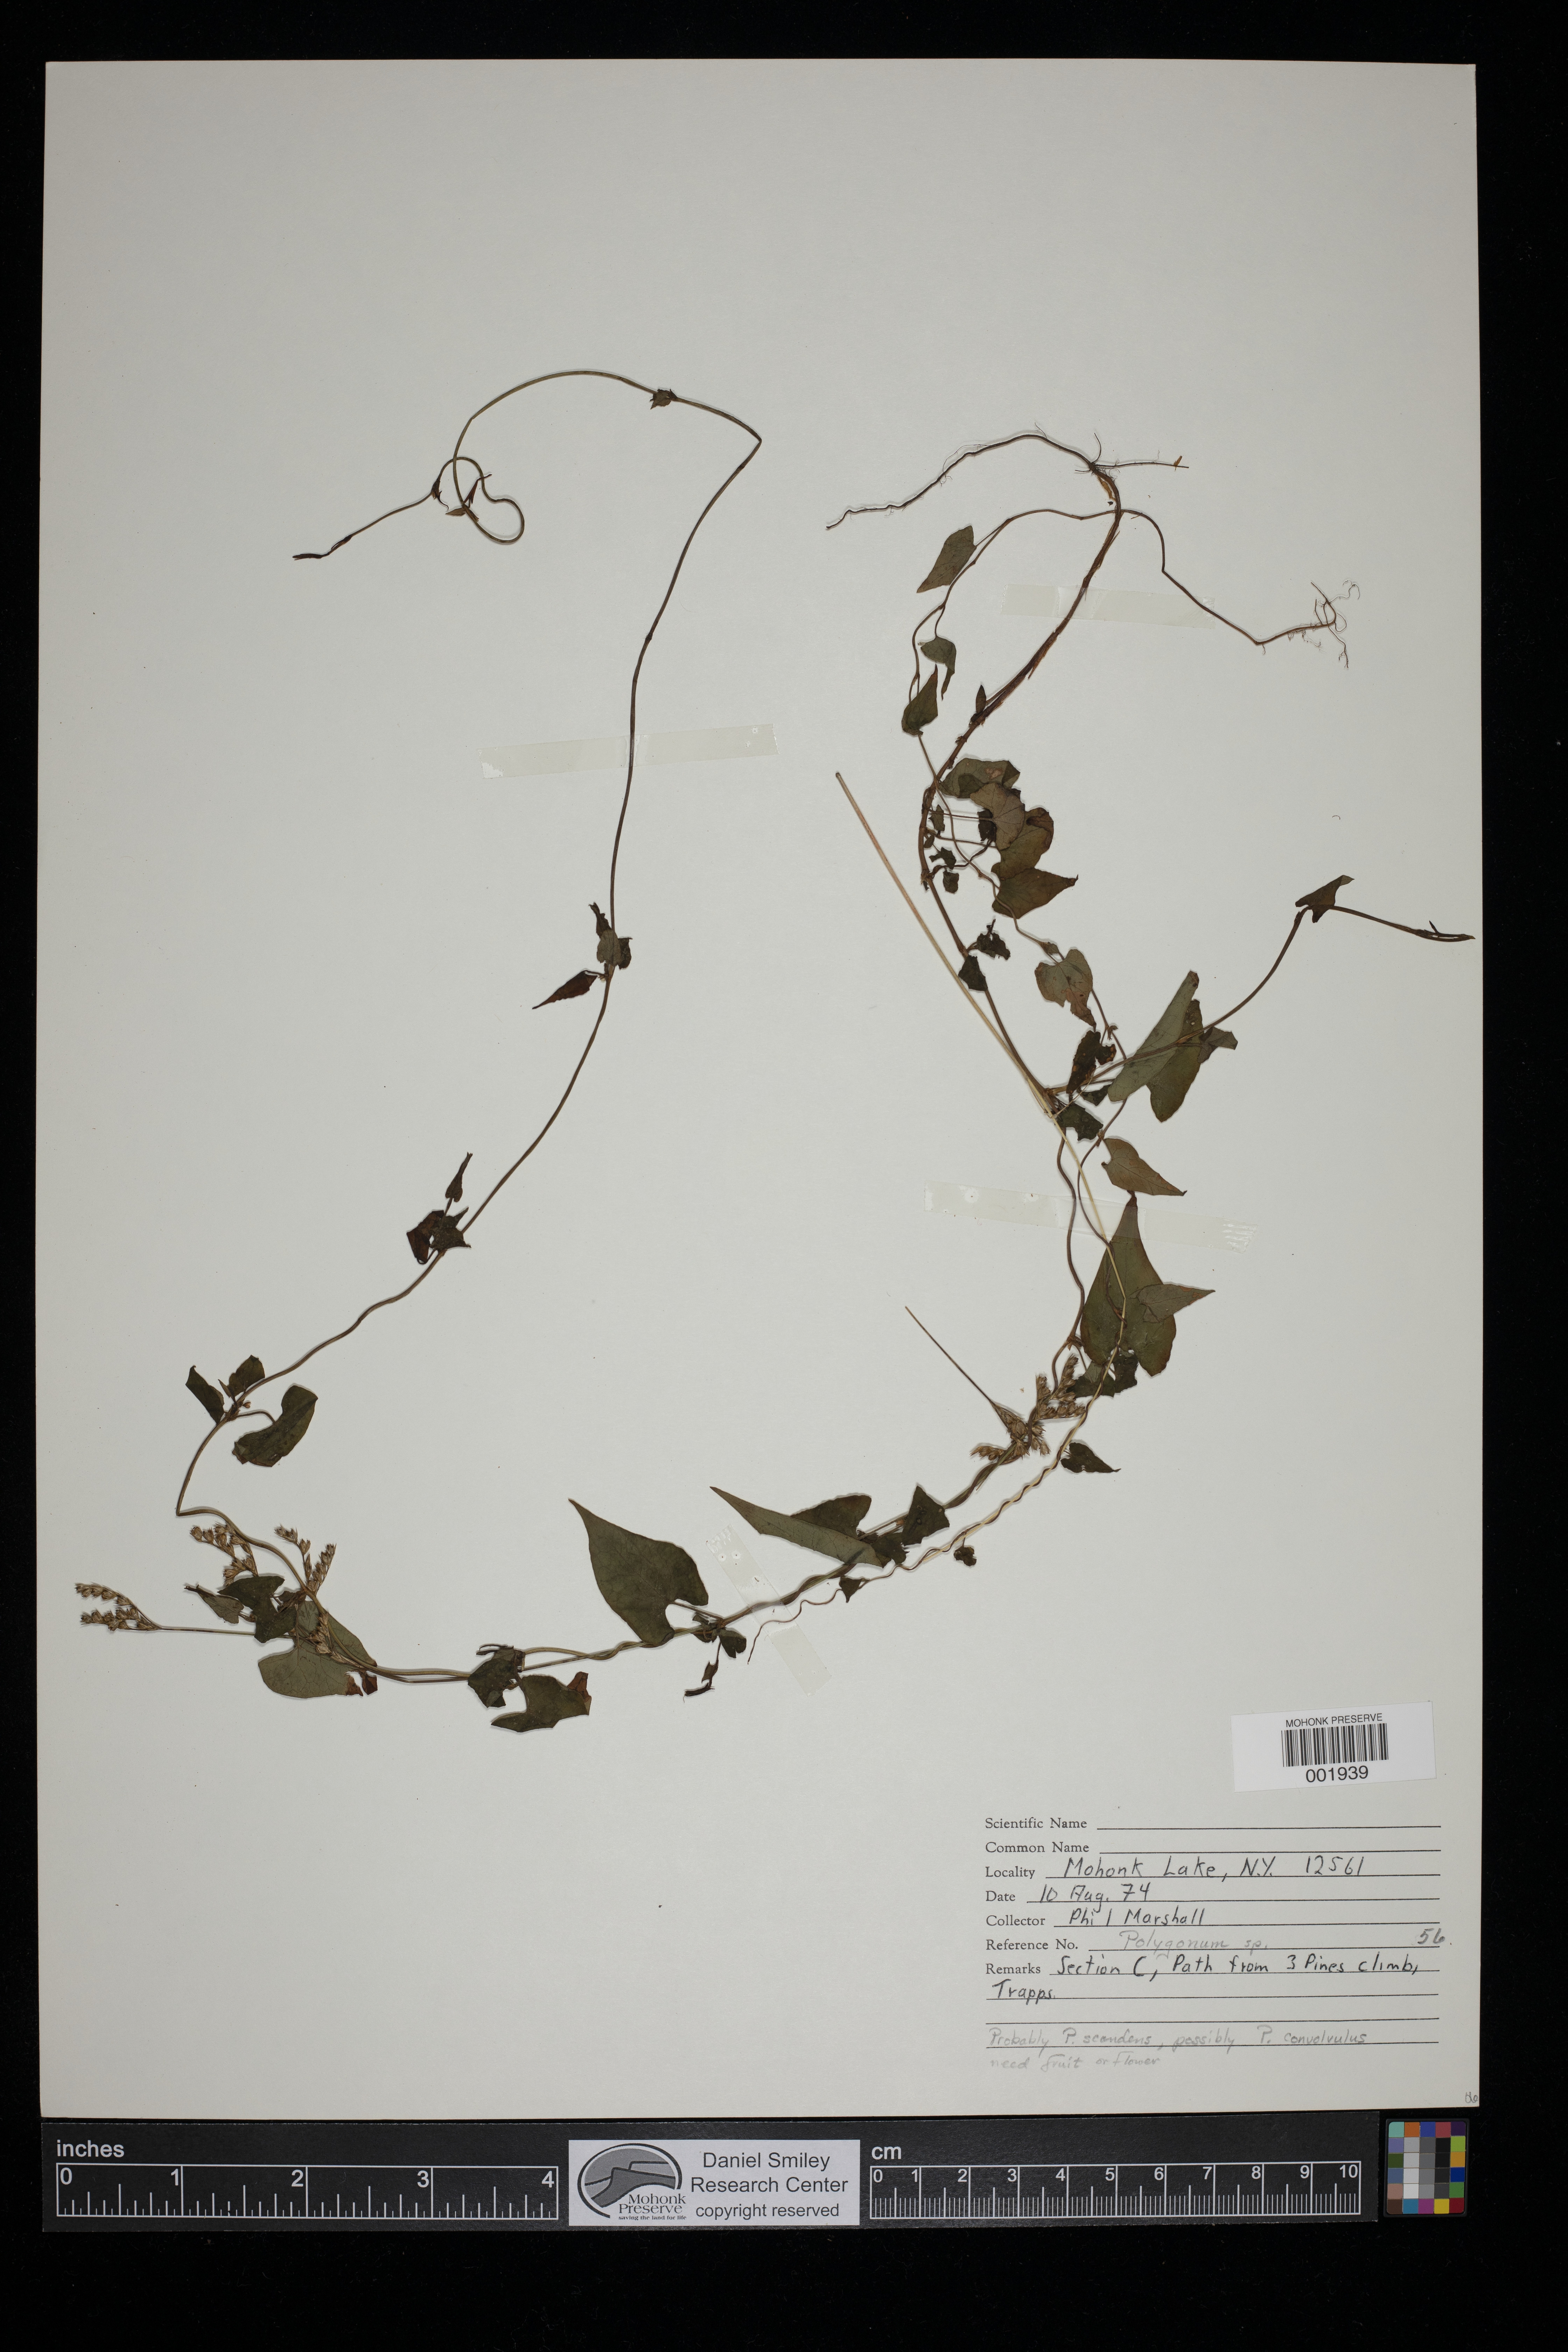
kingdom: Plantae
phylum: Tracheophyta
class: Magnoliopsida
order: Caryophyllales
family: Polygonaceae
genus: Polygonum
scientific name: Polygonum
